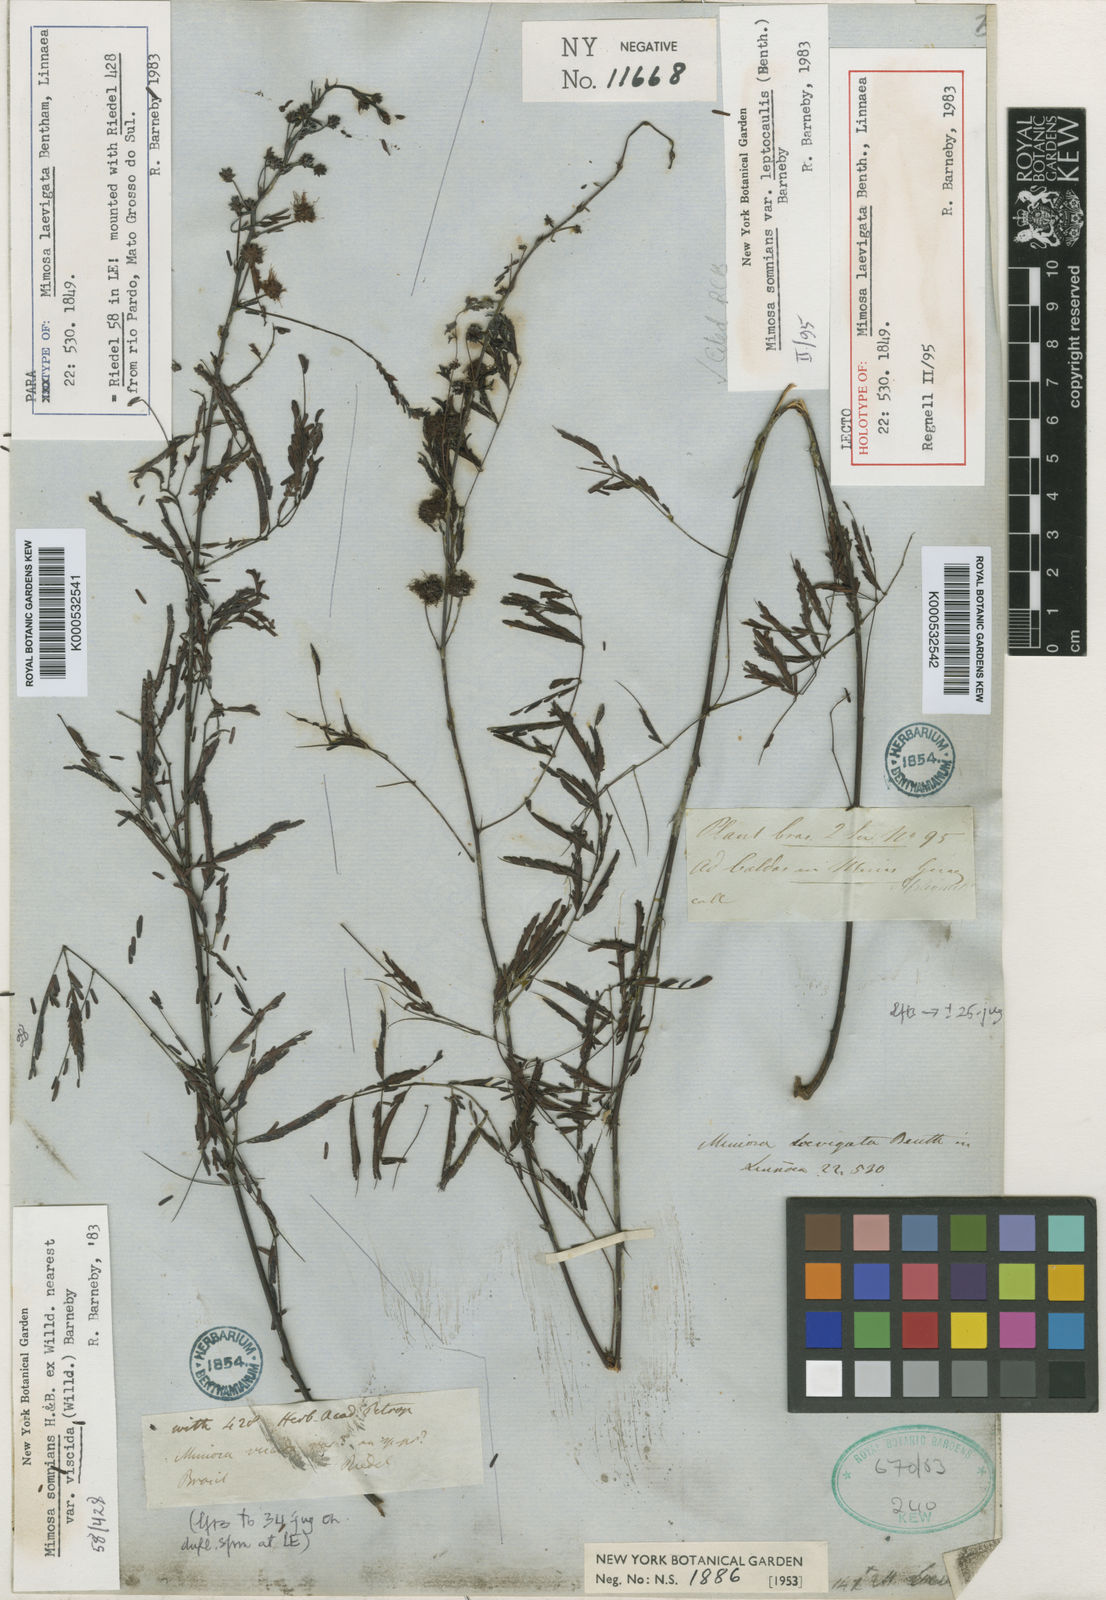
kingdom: Plantae
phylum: Tracheophyta
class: Magnoliopsida
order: Fabales
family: Fabaceae
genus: Mimosa
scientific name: Mimosa somnians
